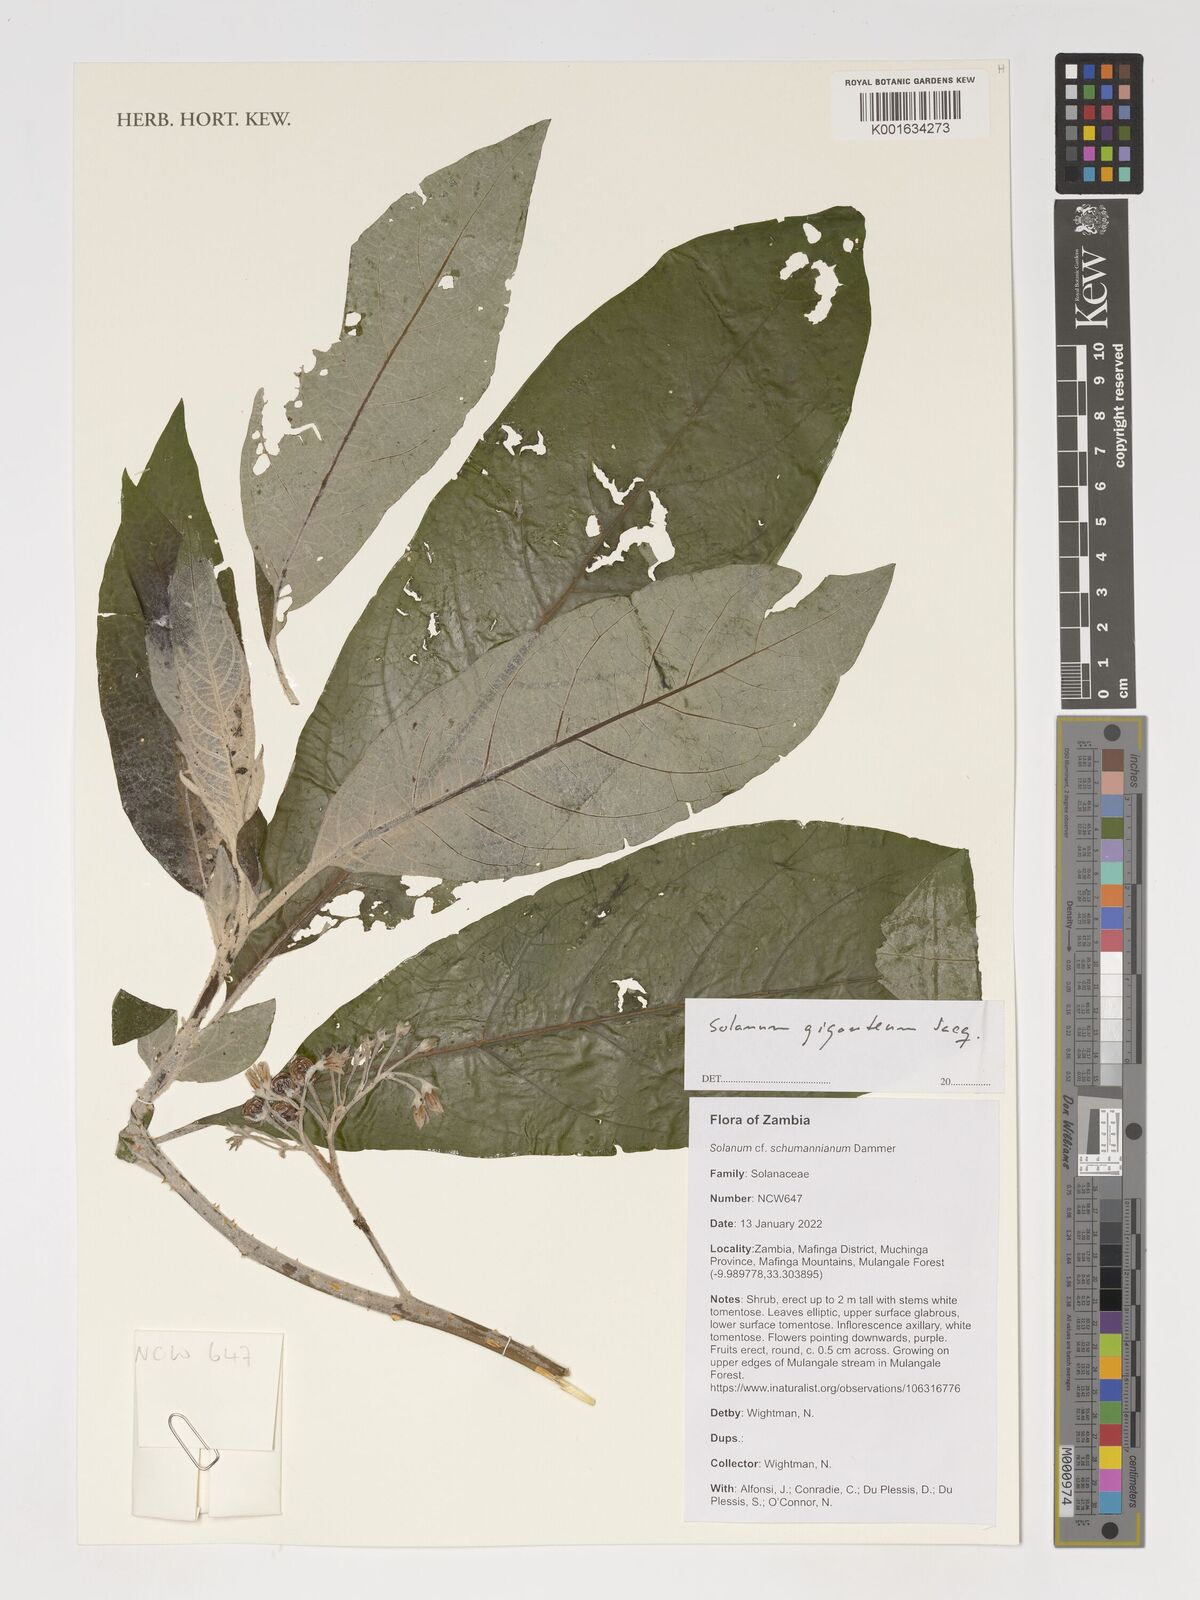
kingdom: Plantae
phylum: Tracheophyta
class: Magnoliopsida
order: Solanales
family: Solanaceae
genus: Solanum
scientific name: Solanum giganteum
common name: Healing-leaf-tree
